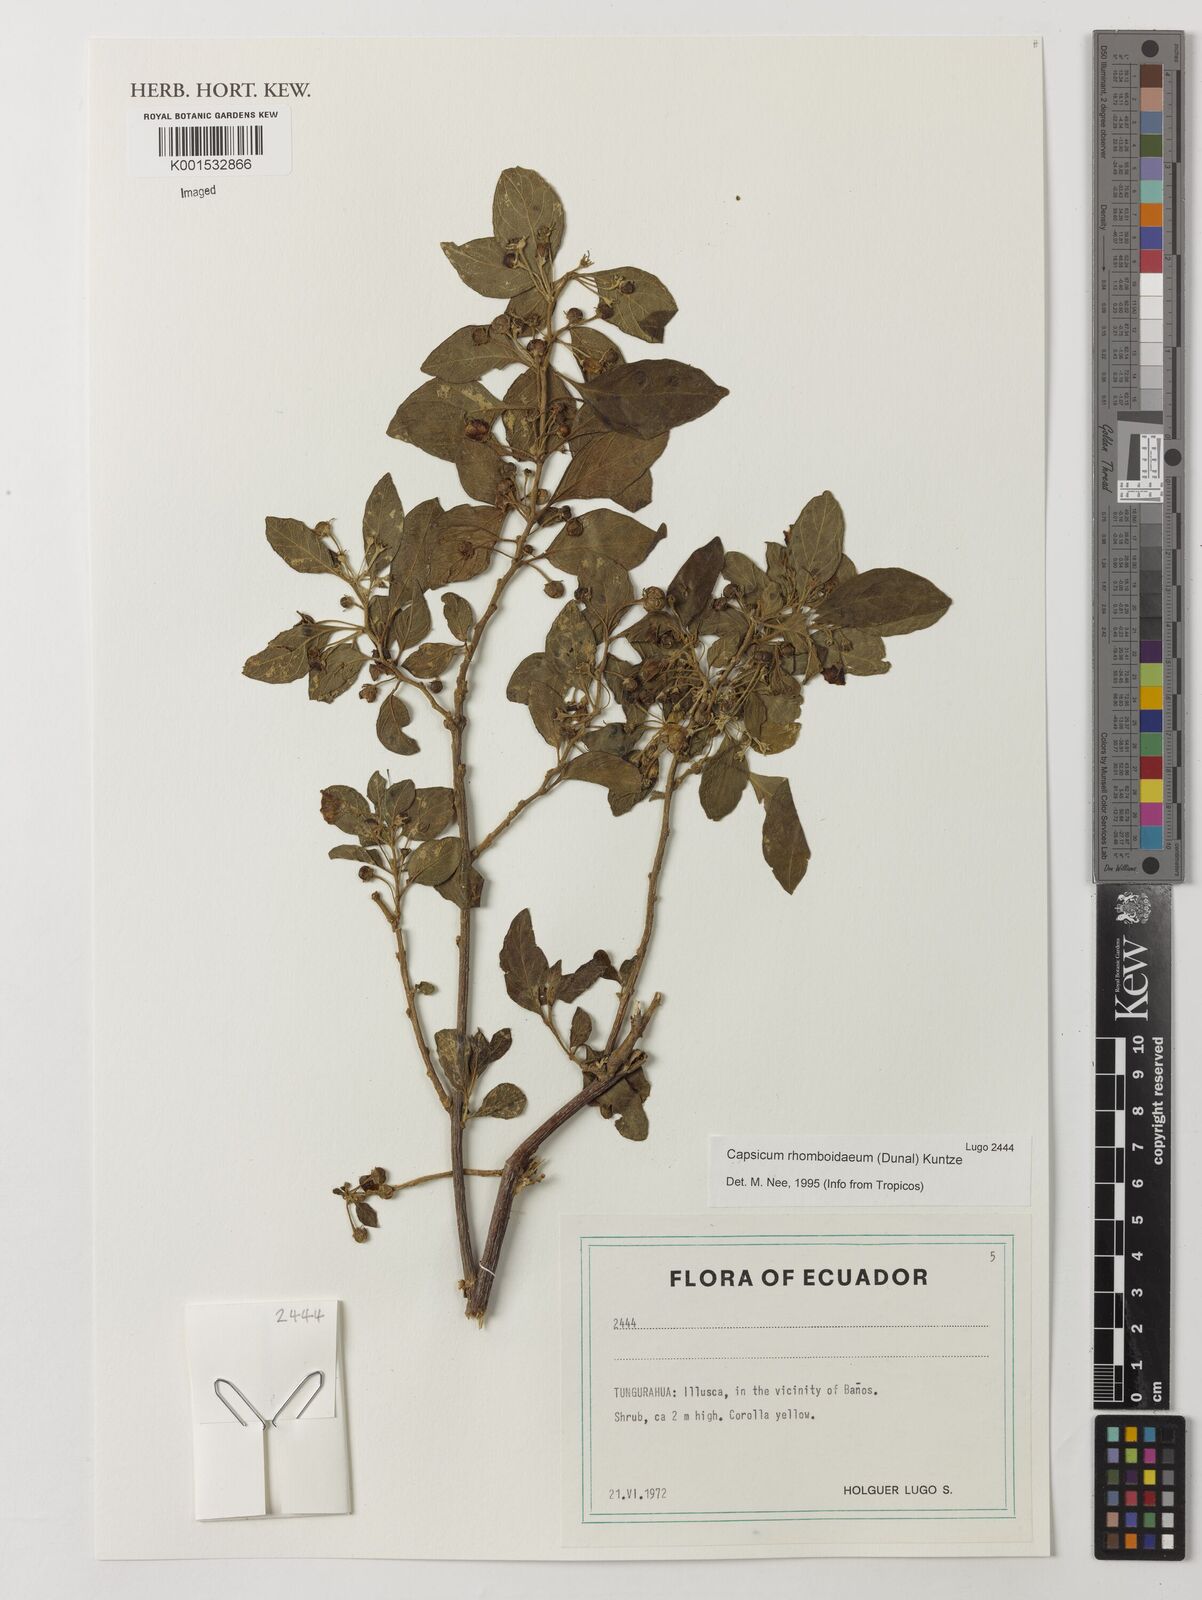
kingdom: Plantae
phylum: Tracheophyta
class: Magnoliopsida
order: Solanales
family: Solanaceae
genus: Capsicum
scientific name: Capsicum rhomboideum
